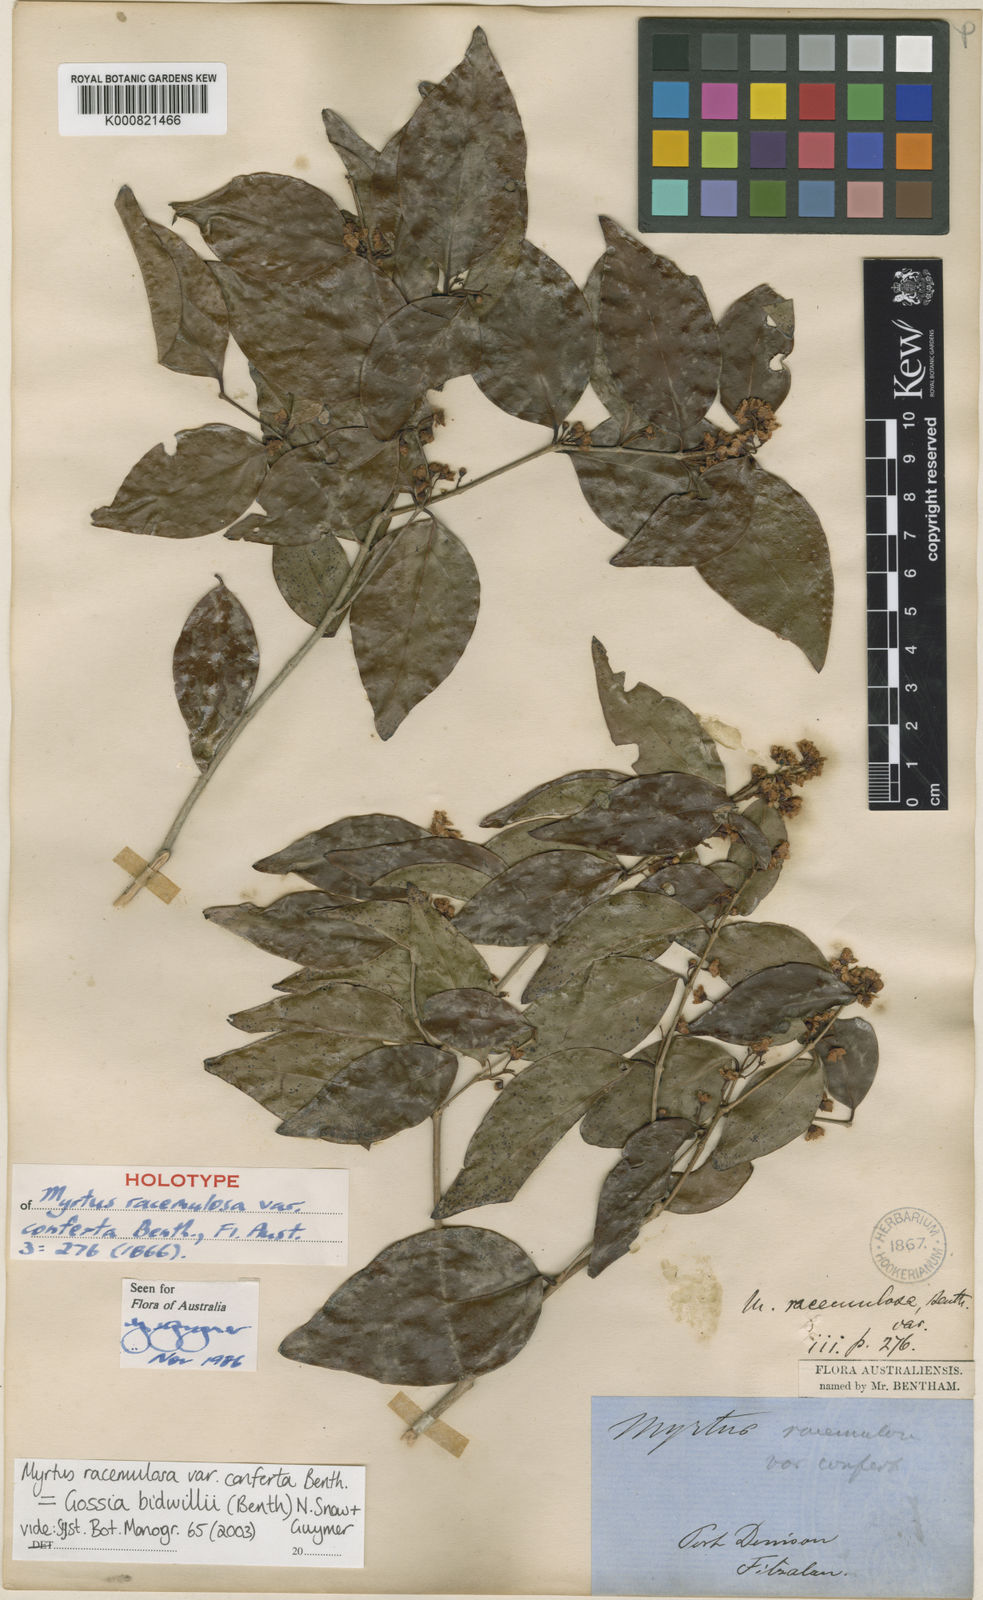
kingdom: Plantae
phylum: Tracheophyta
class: Magnoliopsida
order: Myrtales
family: Myrtaceae
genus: Gossia
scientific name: Gossia bidwillii
